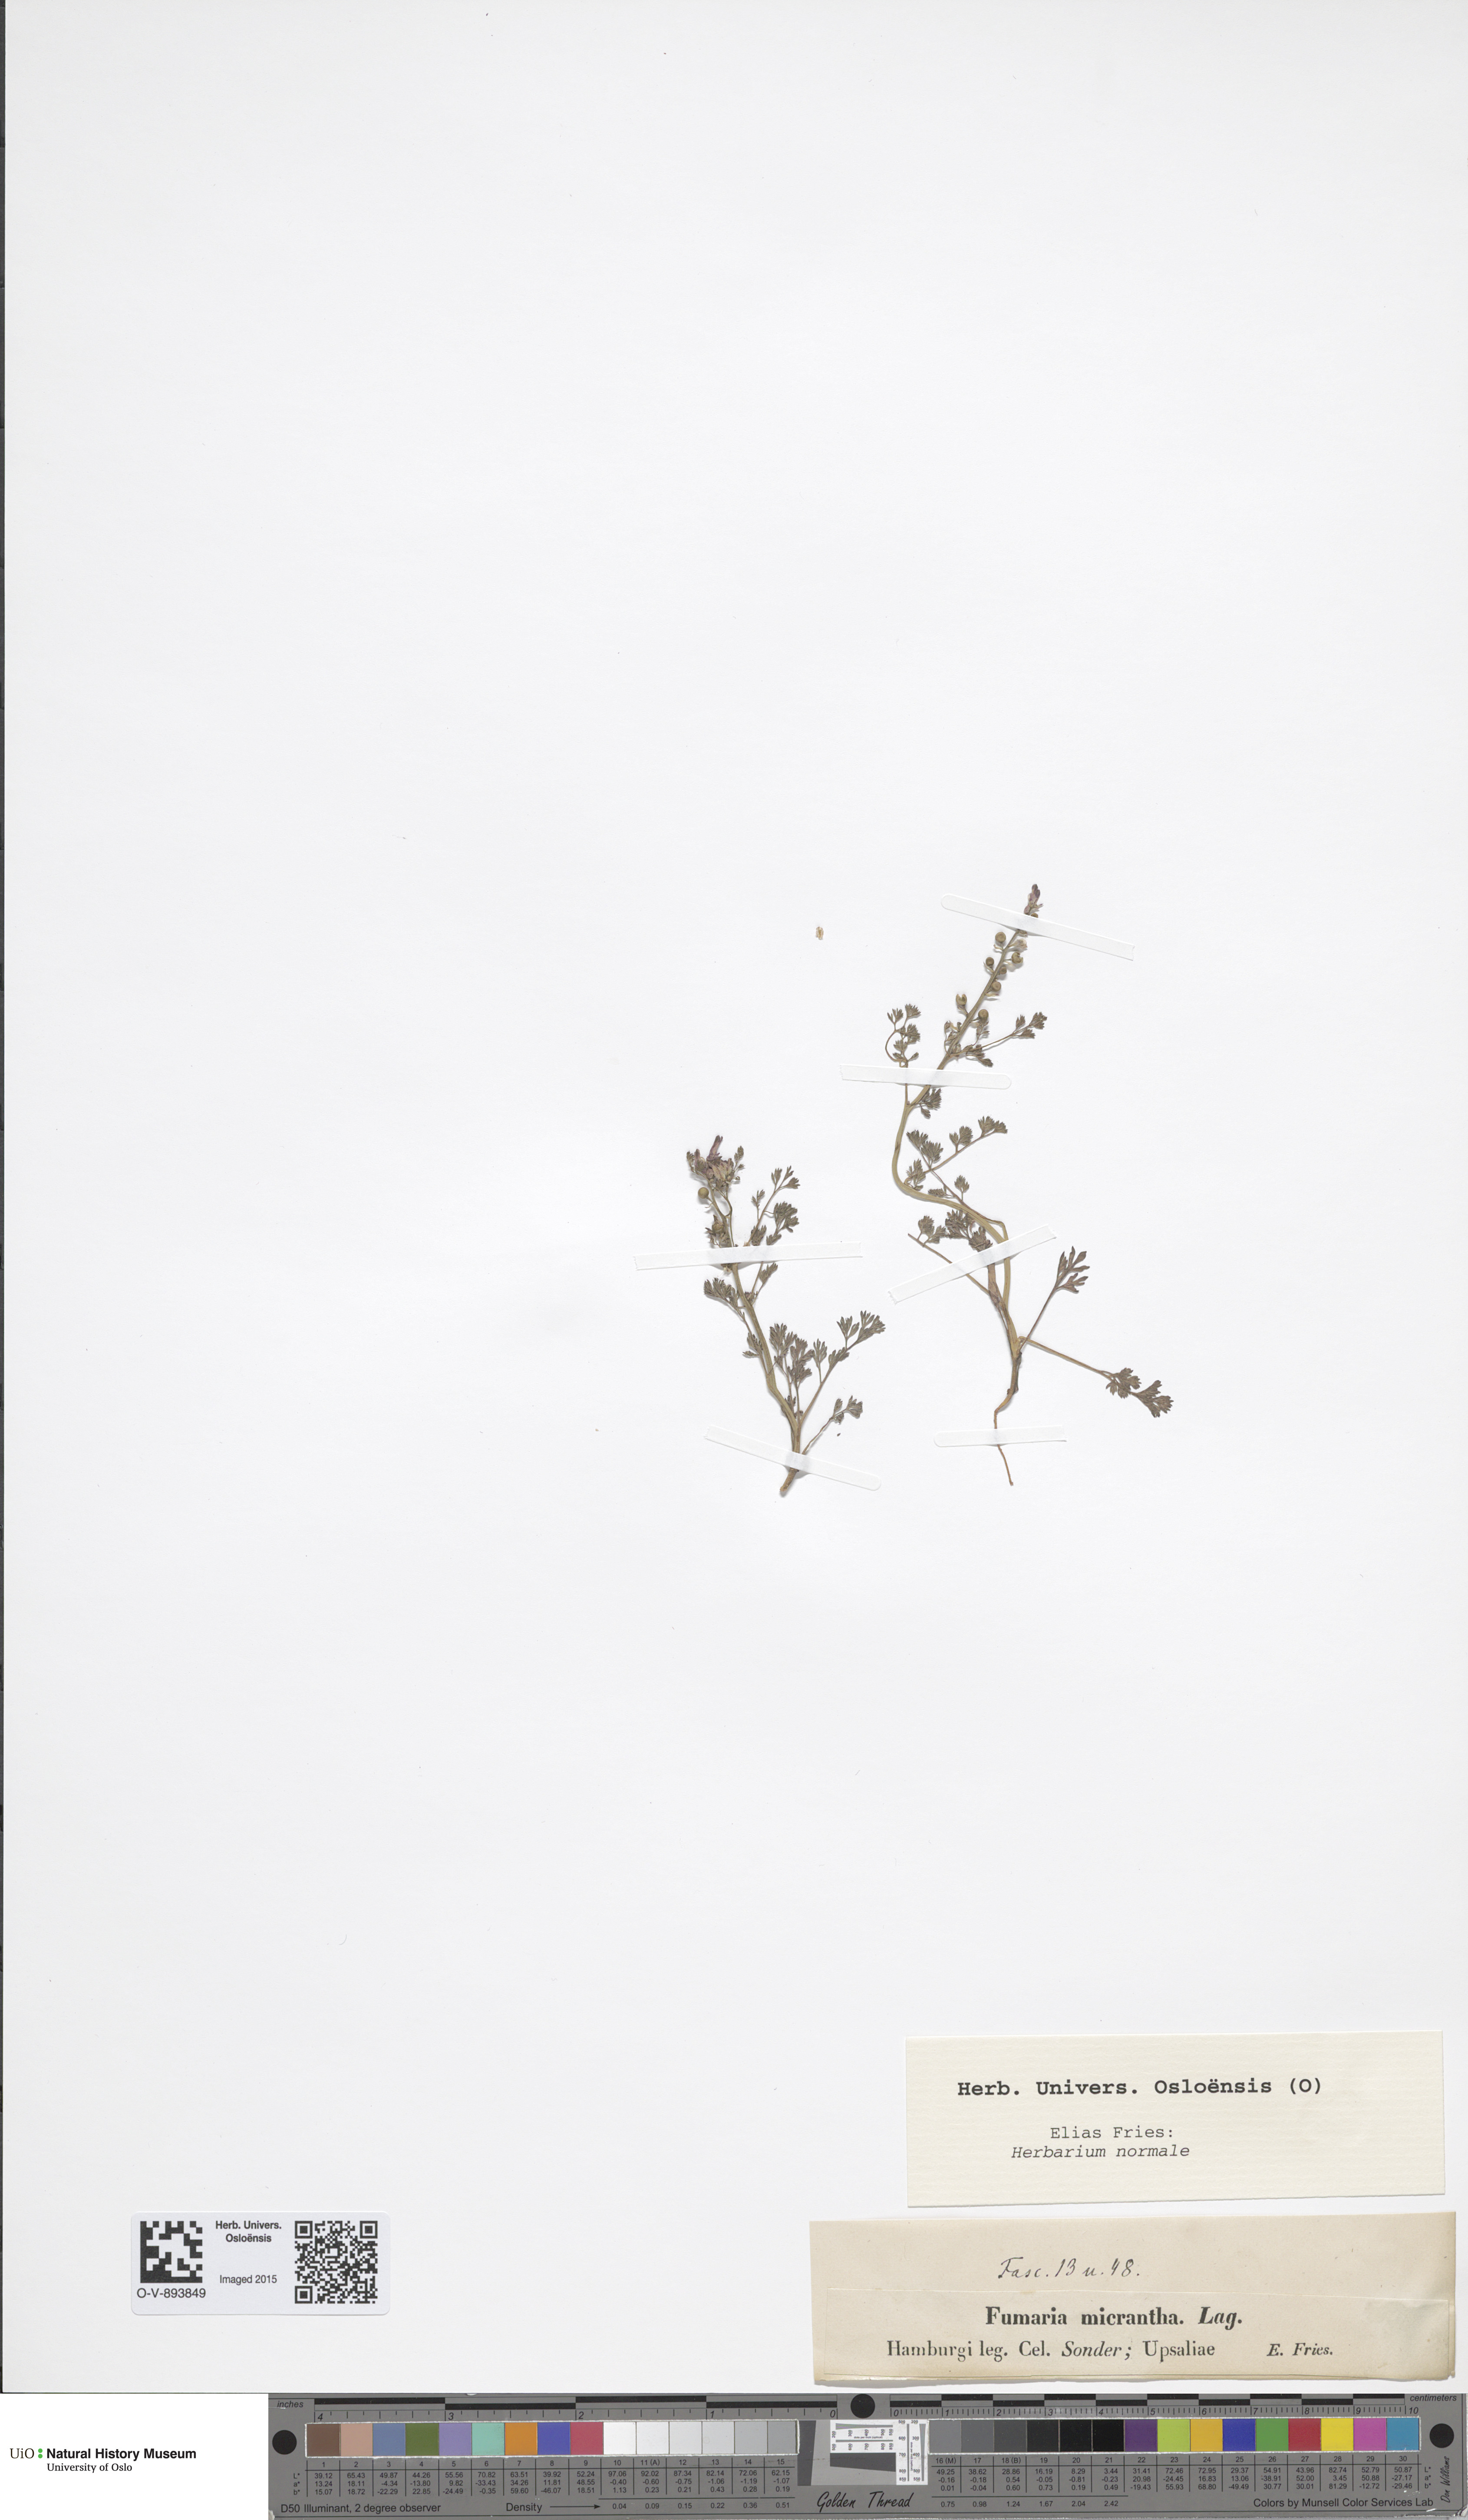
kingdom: Plantae
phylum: Tracheophyta
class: Magnoliopsida
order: Ranunculales
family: Papaveraceae
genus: Fumaria
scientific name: Fumaria densiflora
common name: Dense-flowered fumitory
